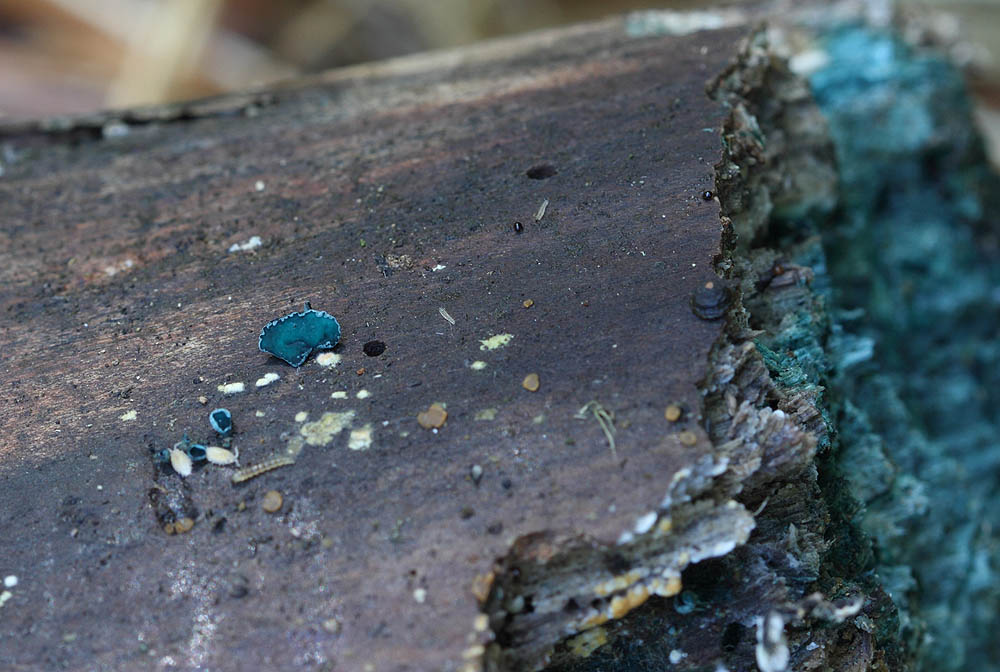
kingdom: Fungi
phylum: Ascomycota
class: Leotiomycetes
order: Helotiales
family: Chlorociboriaceae
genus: Chlorociboria
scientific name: Chlorociboria aeruginascens
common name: almindelig grønskive
